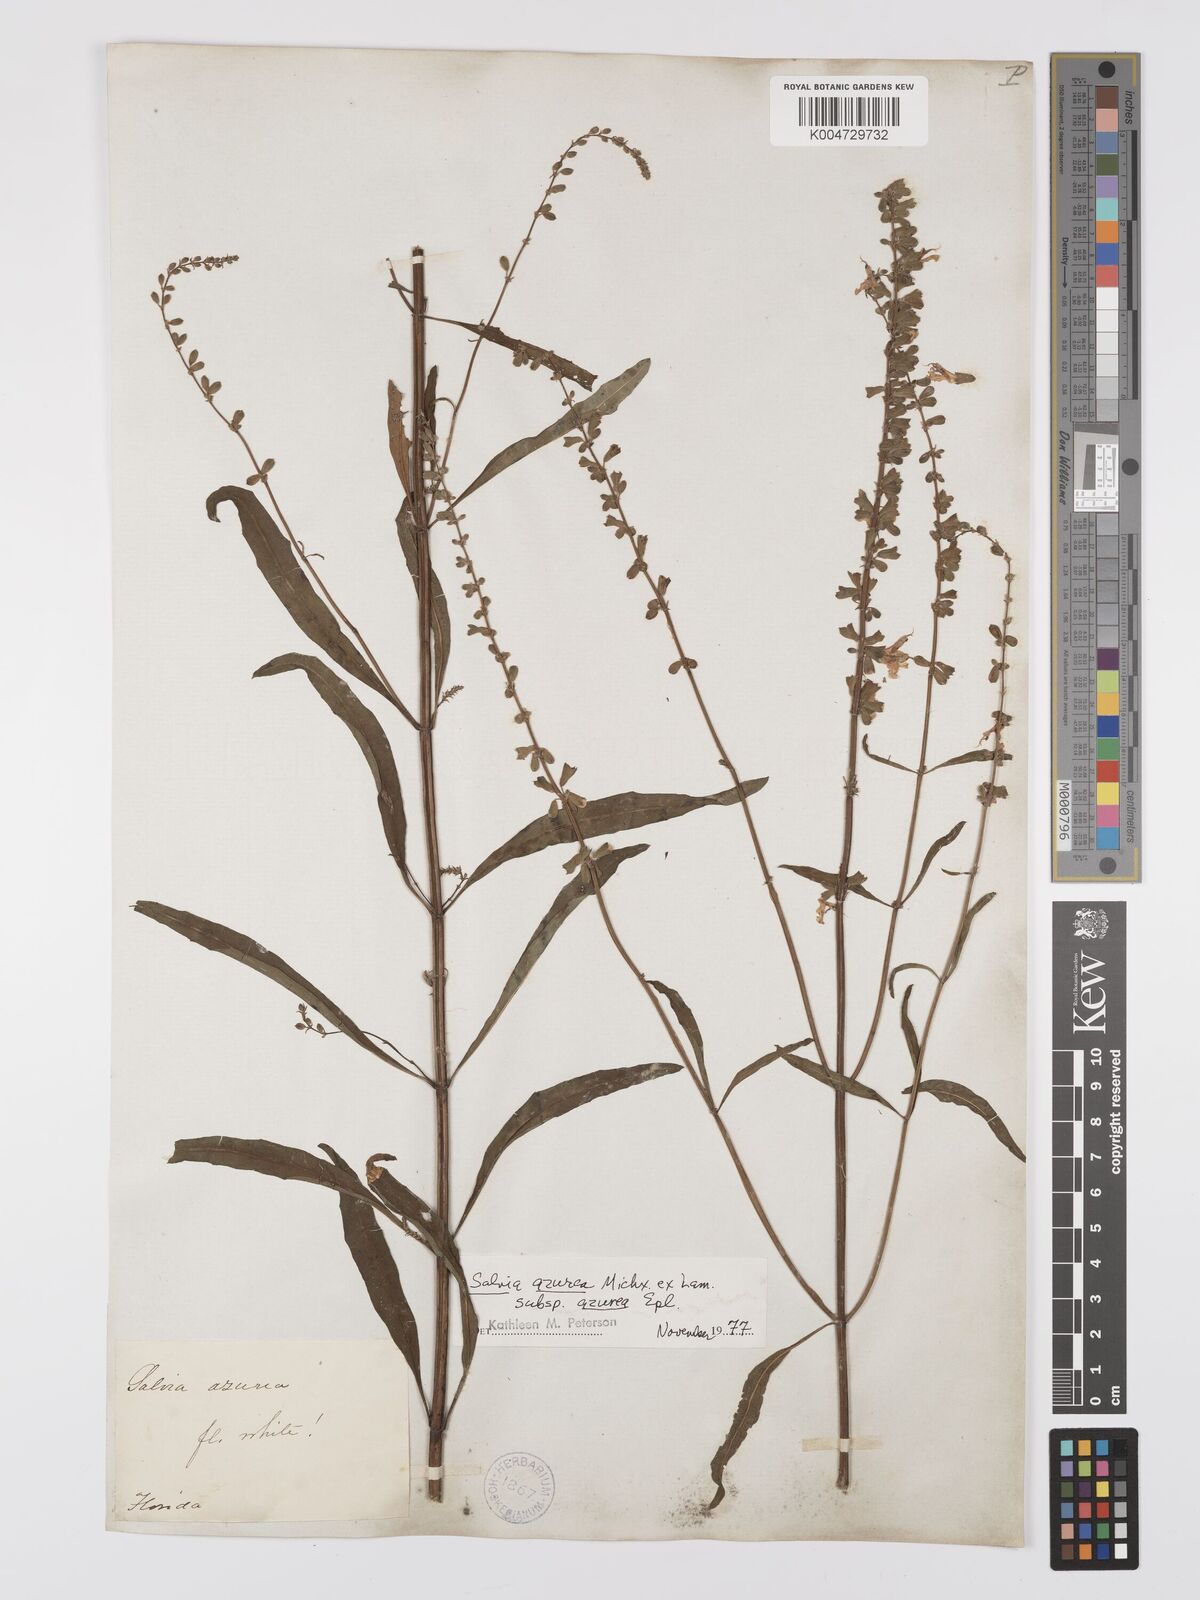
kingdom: Plantae
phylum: Tracheophyta
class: Magnoliopsida
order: Lamiales
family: Lamiaceae
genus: Salvia
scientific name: Salvia azurea
